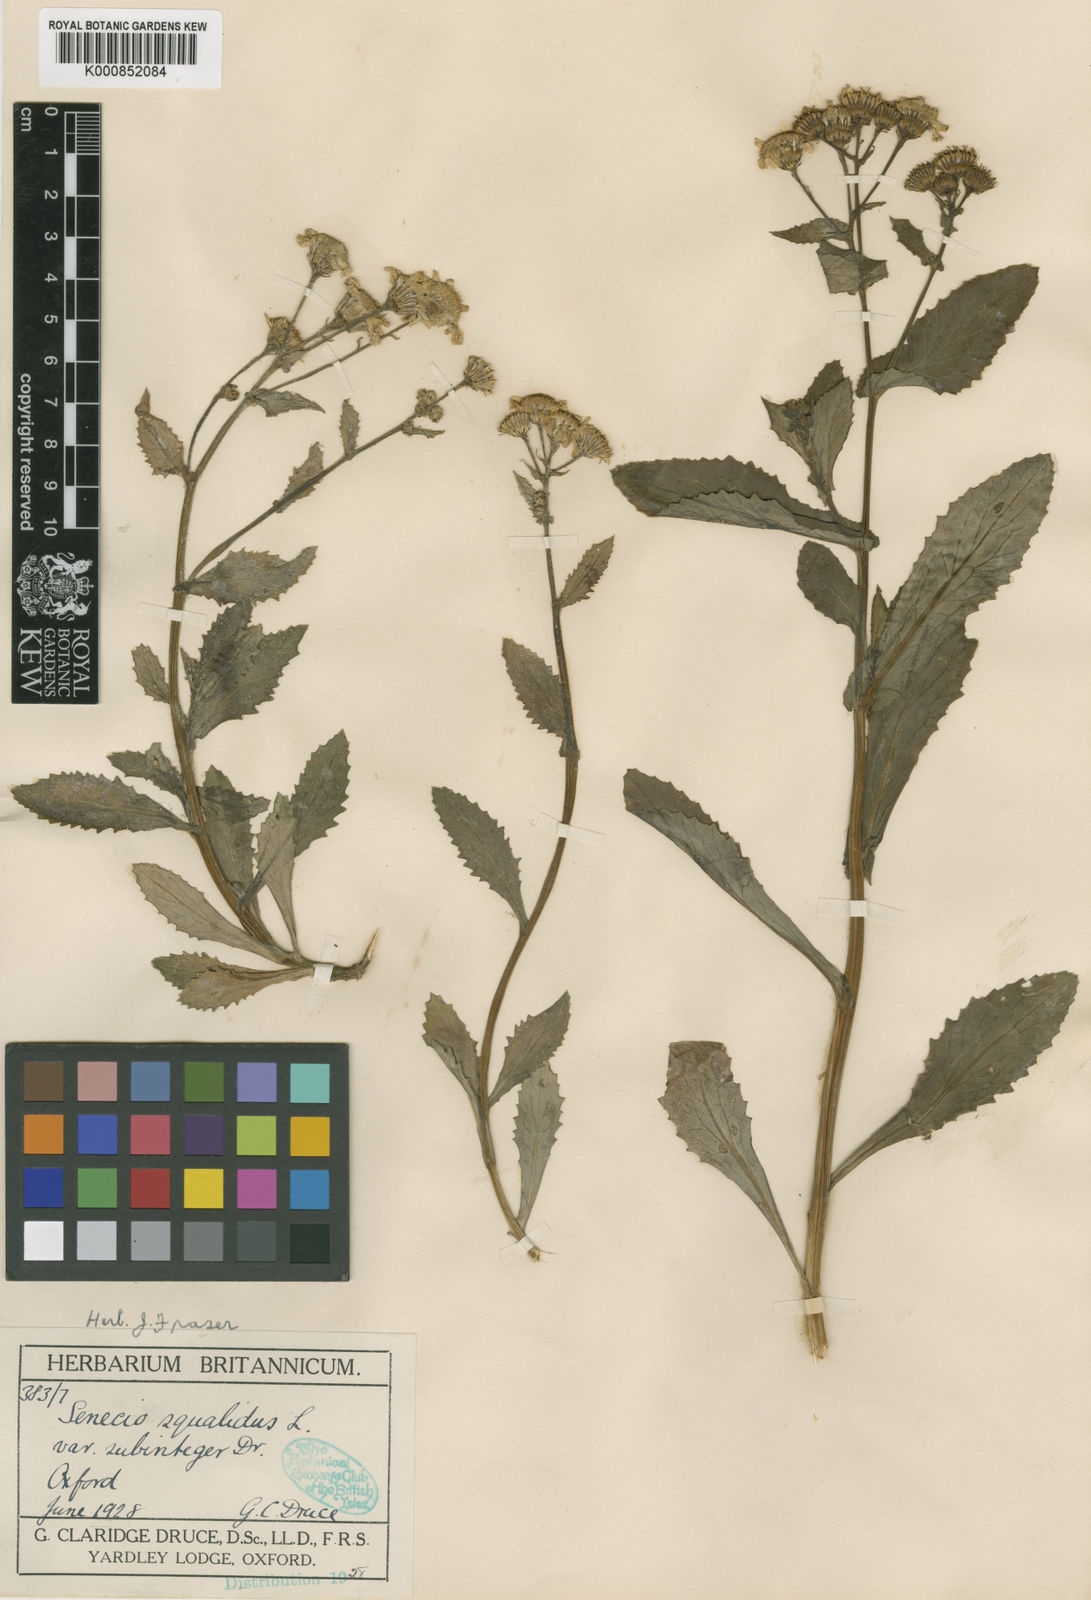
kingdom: Plantae
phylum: Tracheophyta
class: Magnoliopsida
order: Asterales
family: Asteraceae
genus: Senecio
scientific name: Senecio squalidus
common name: Oxford ragwort
